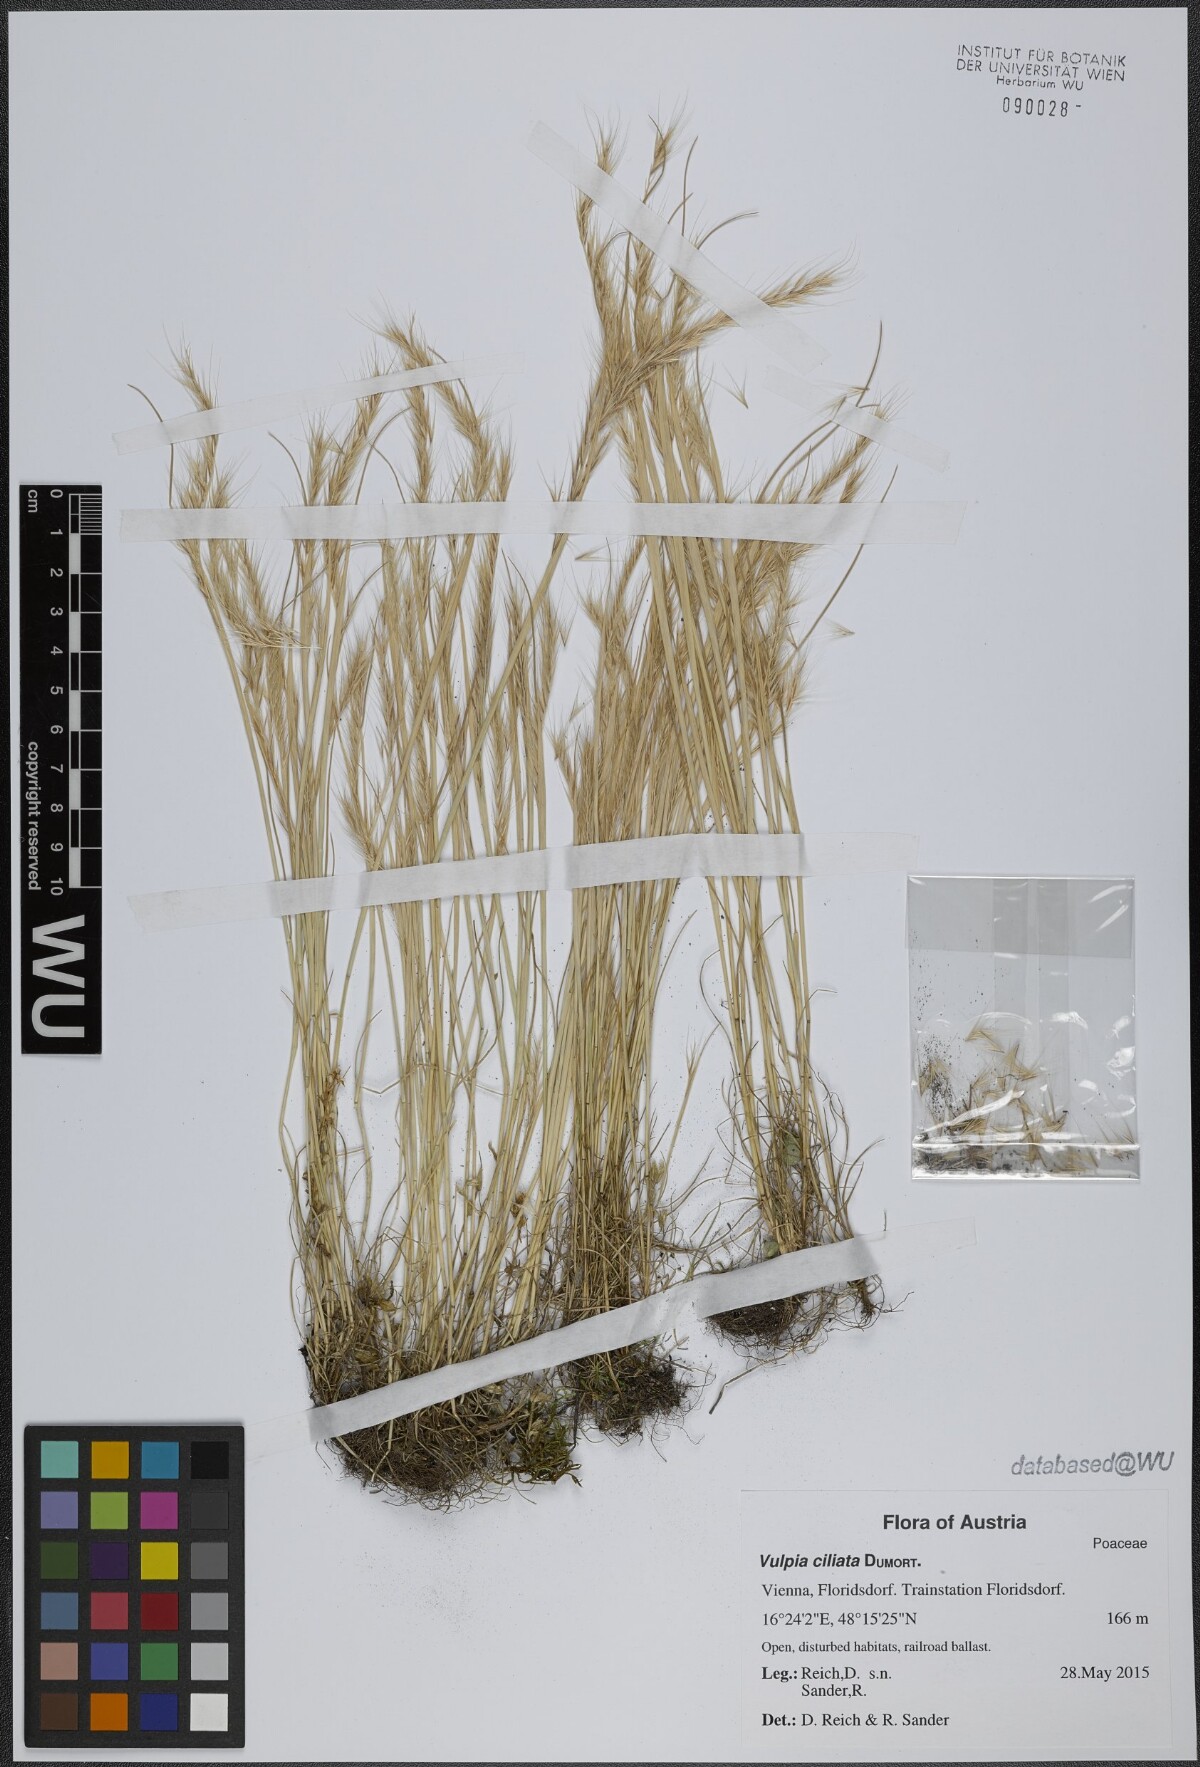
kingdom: Plantae
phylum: Tracheophyta
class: Liliopsida
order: Poales
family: Poaceae
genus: Festuca
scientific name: Festuca ambigua
